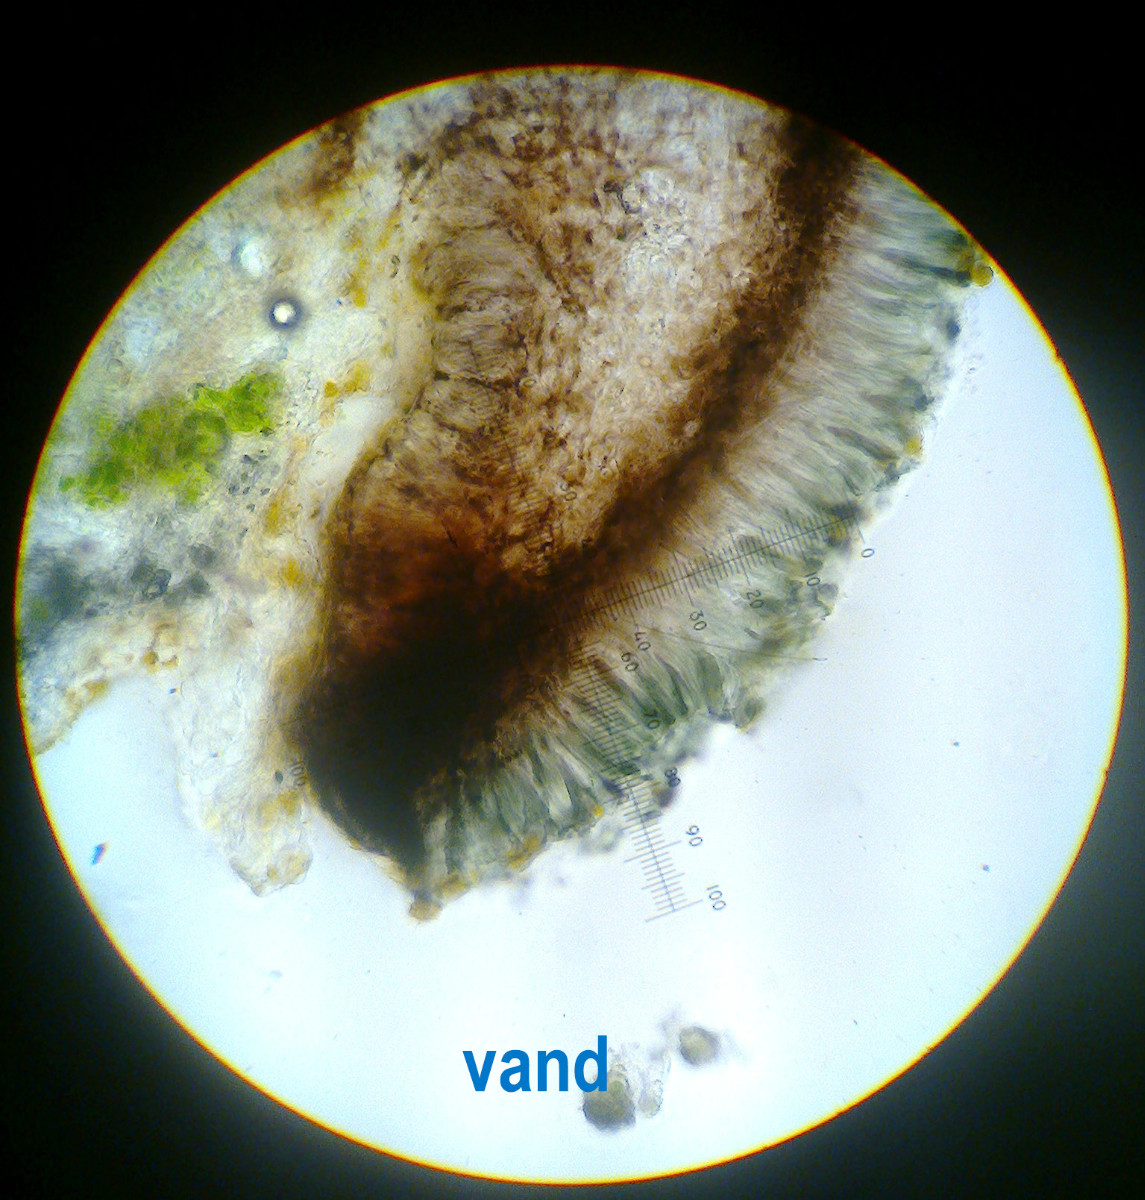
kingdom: Fungi
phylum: Ascomycota
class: Lecanoromycetes
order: Lecanorales
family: Ramalinaceae
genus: Toniniopsis
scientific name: Toniniopsis bagliettoana
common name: mos-tensporelav
